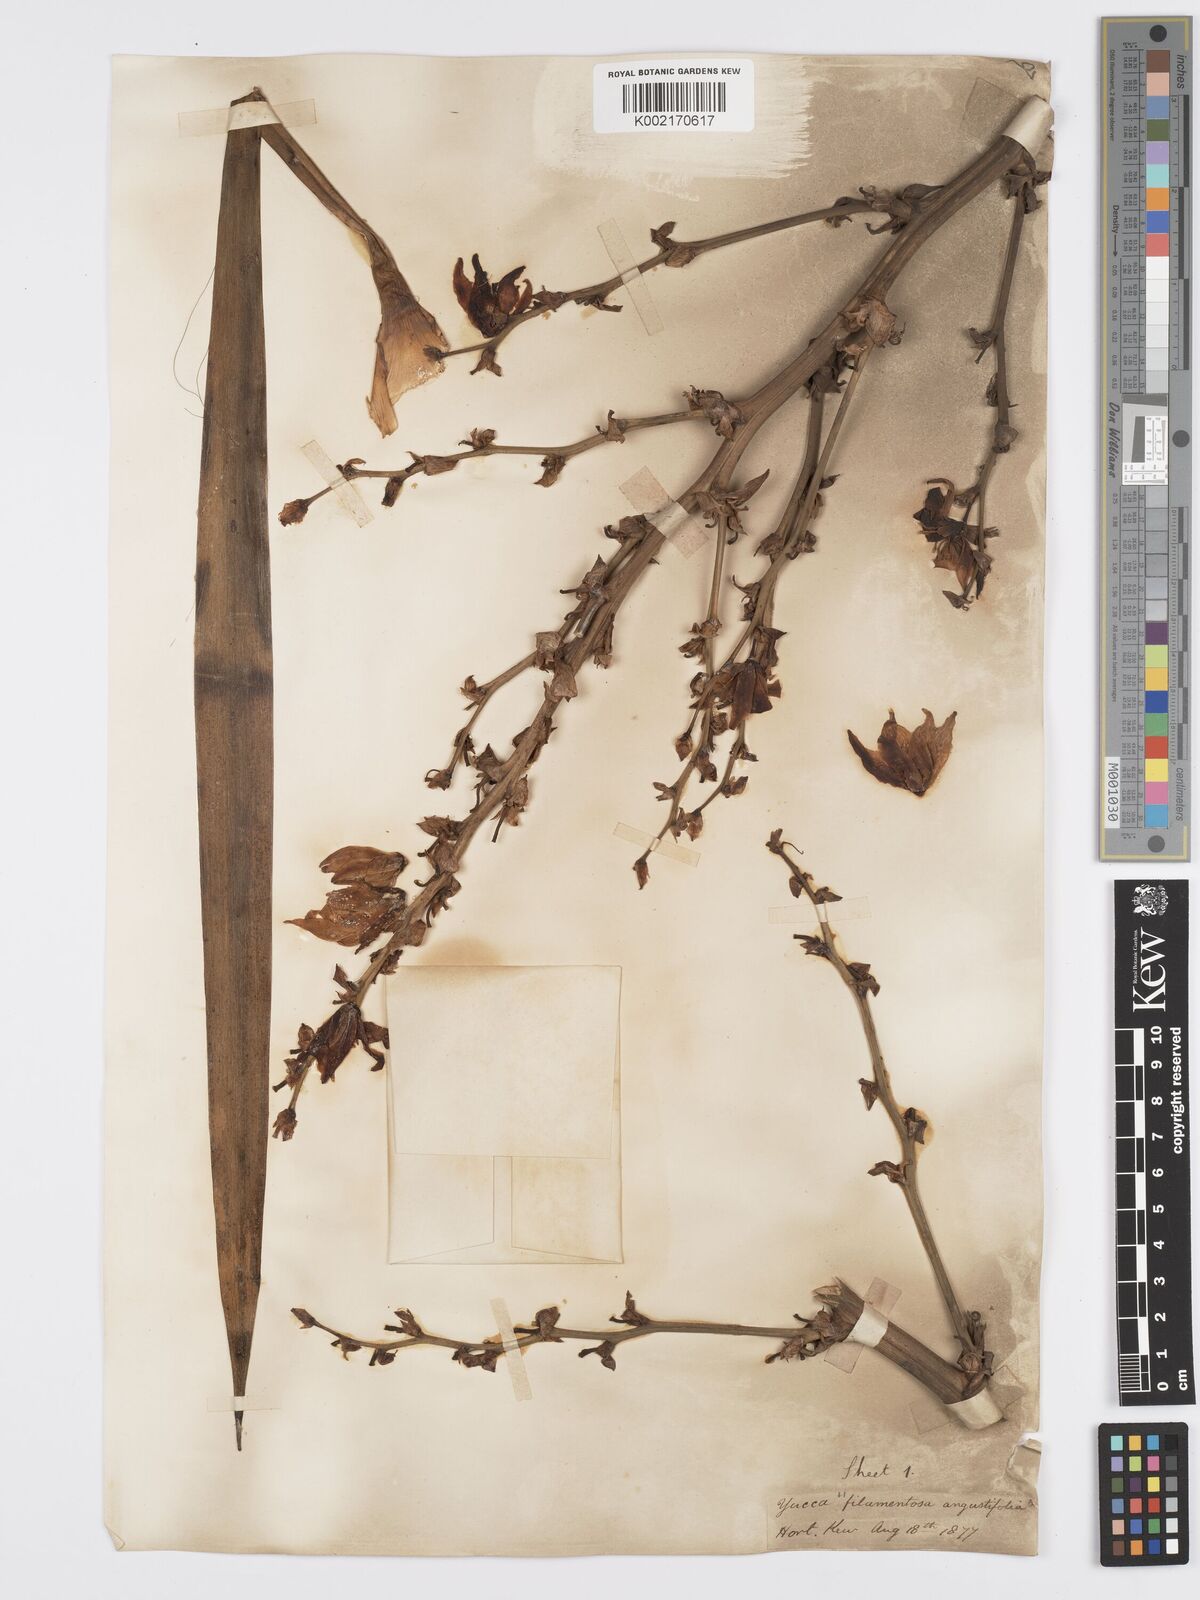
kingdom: Plantae
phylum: Tracheophyta
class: Liliopsida
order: Asparagales
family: Asparagaceae
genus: Yucca
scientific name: Yucca filamentosa
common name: Adam's-needle
